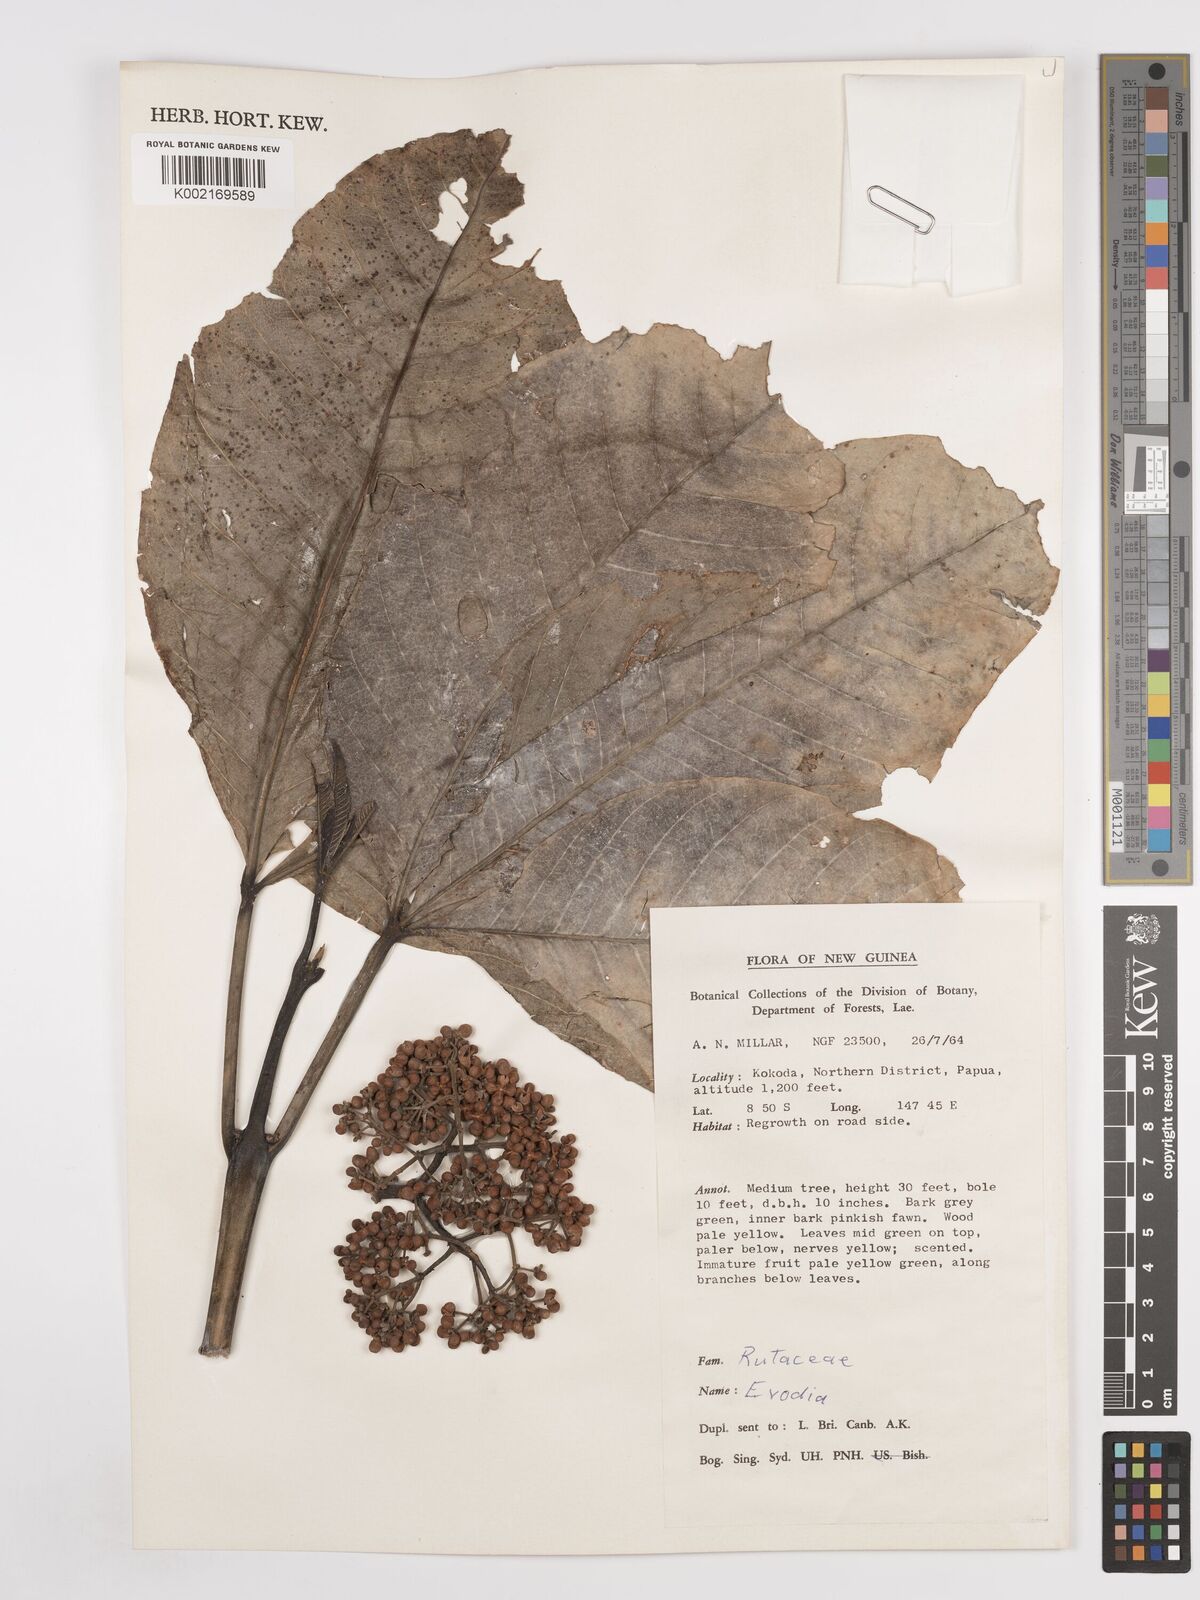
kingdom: Plantae
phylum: Tracheophyta
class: Magnoliopsida
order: Sapindales
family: Rutaceae
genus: Euodia
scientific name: Euodia
